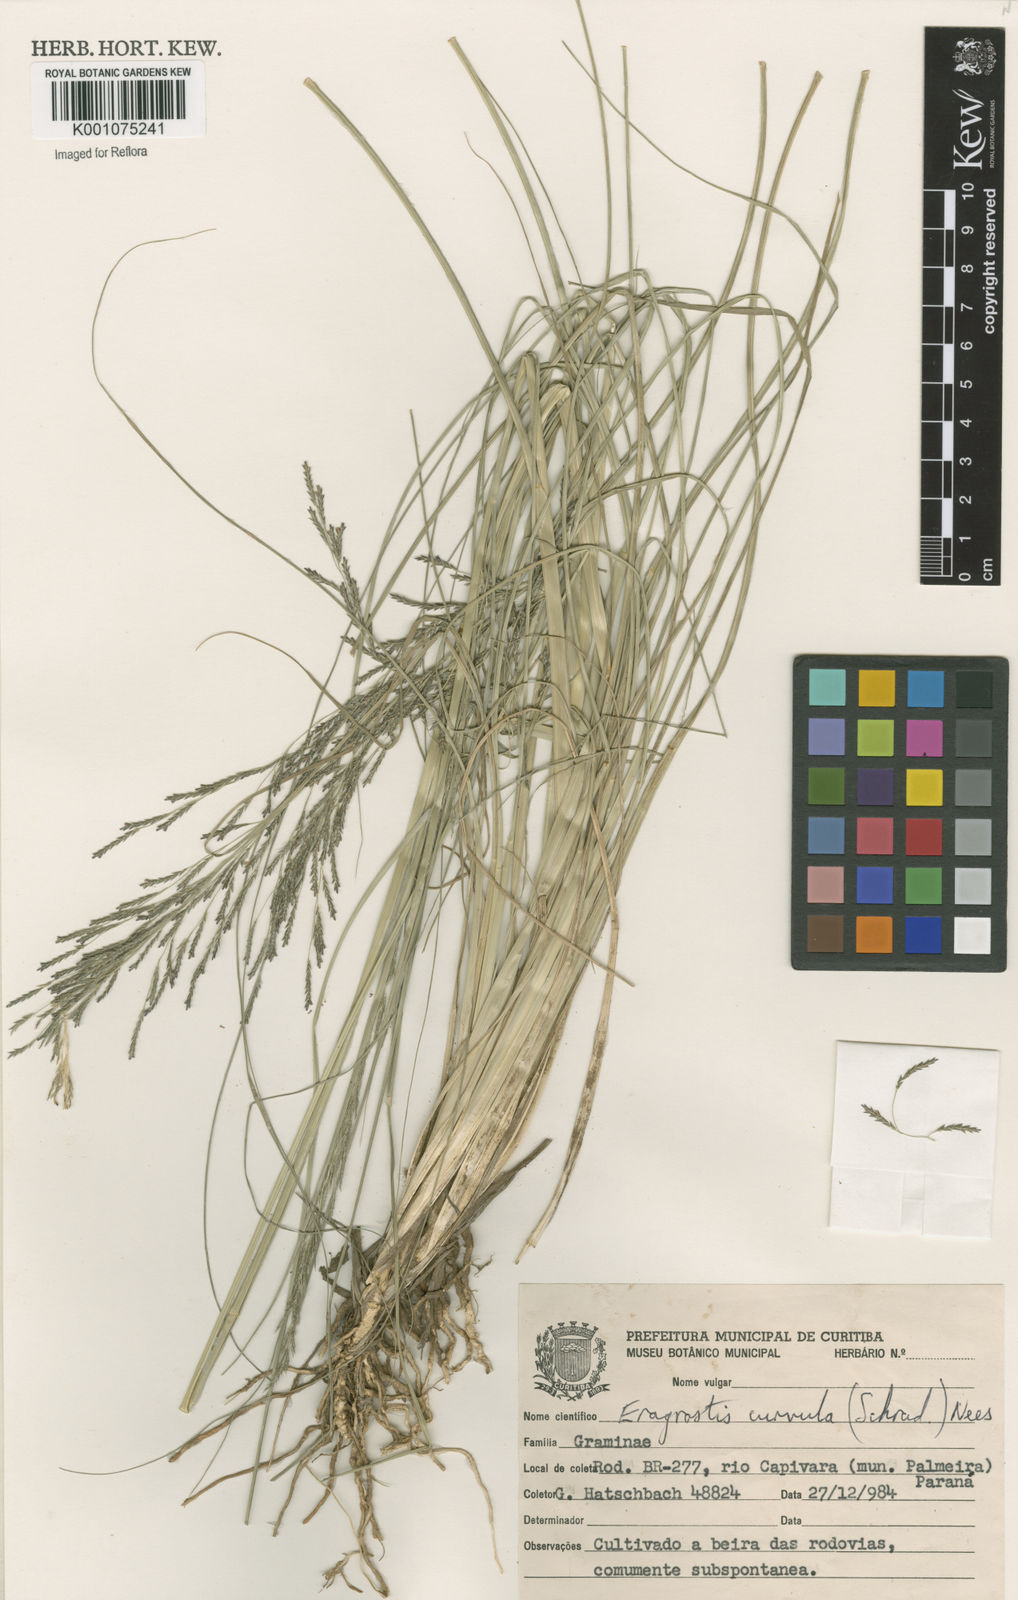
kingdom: Plantae
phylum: Tracheophyta
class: Liliopsida
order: Poales
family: Poaceae
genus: Eragrostis
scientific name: Eragrostis curvula
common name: African love-grass
